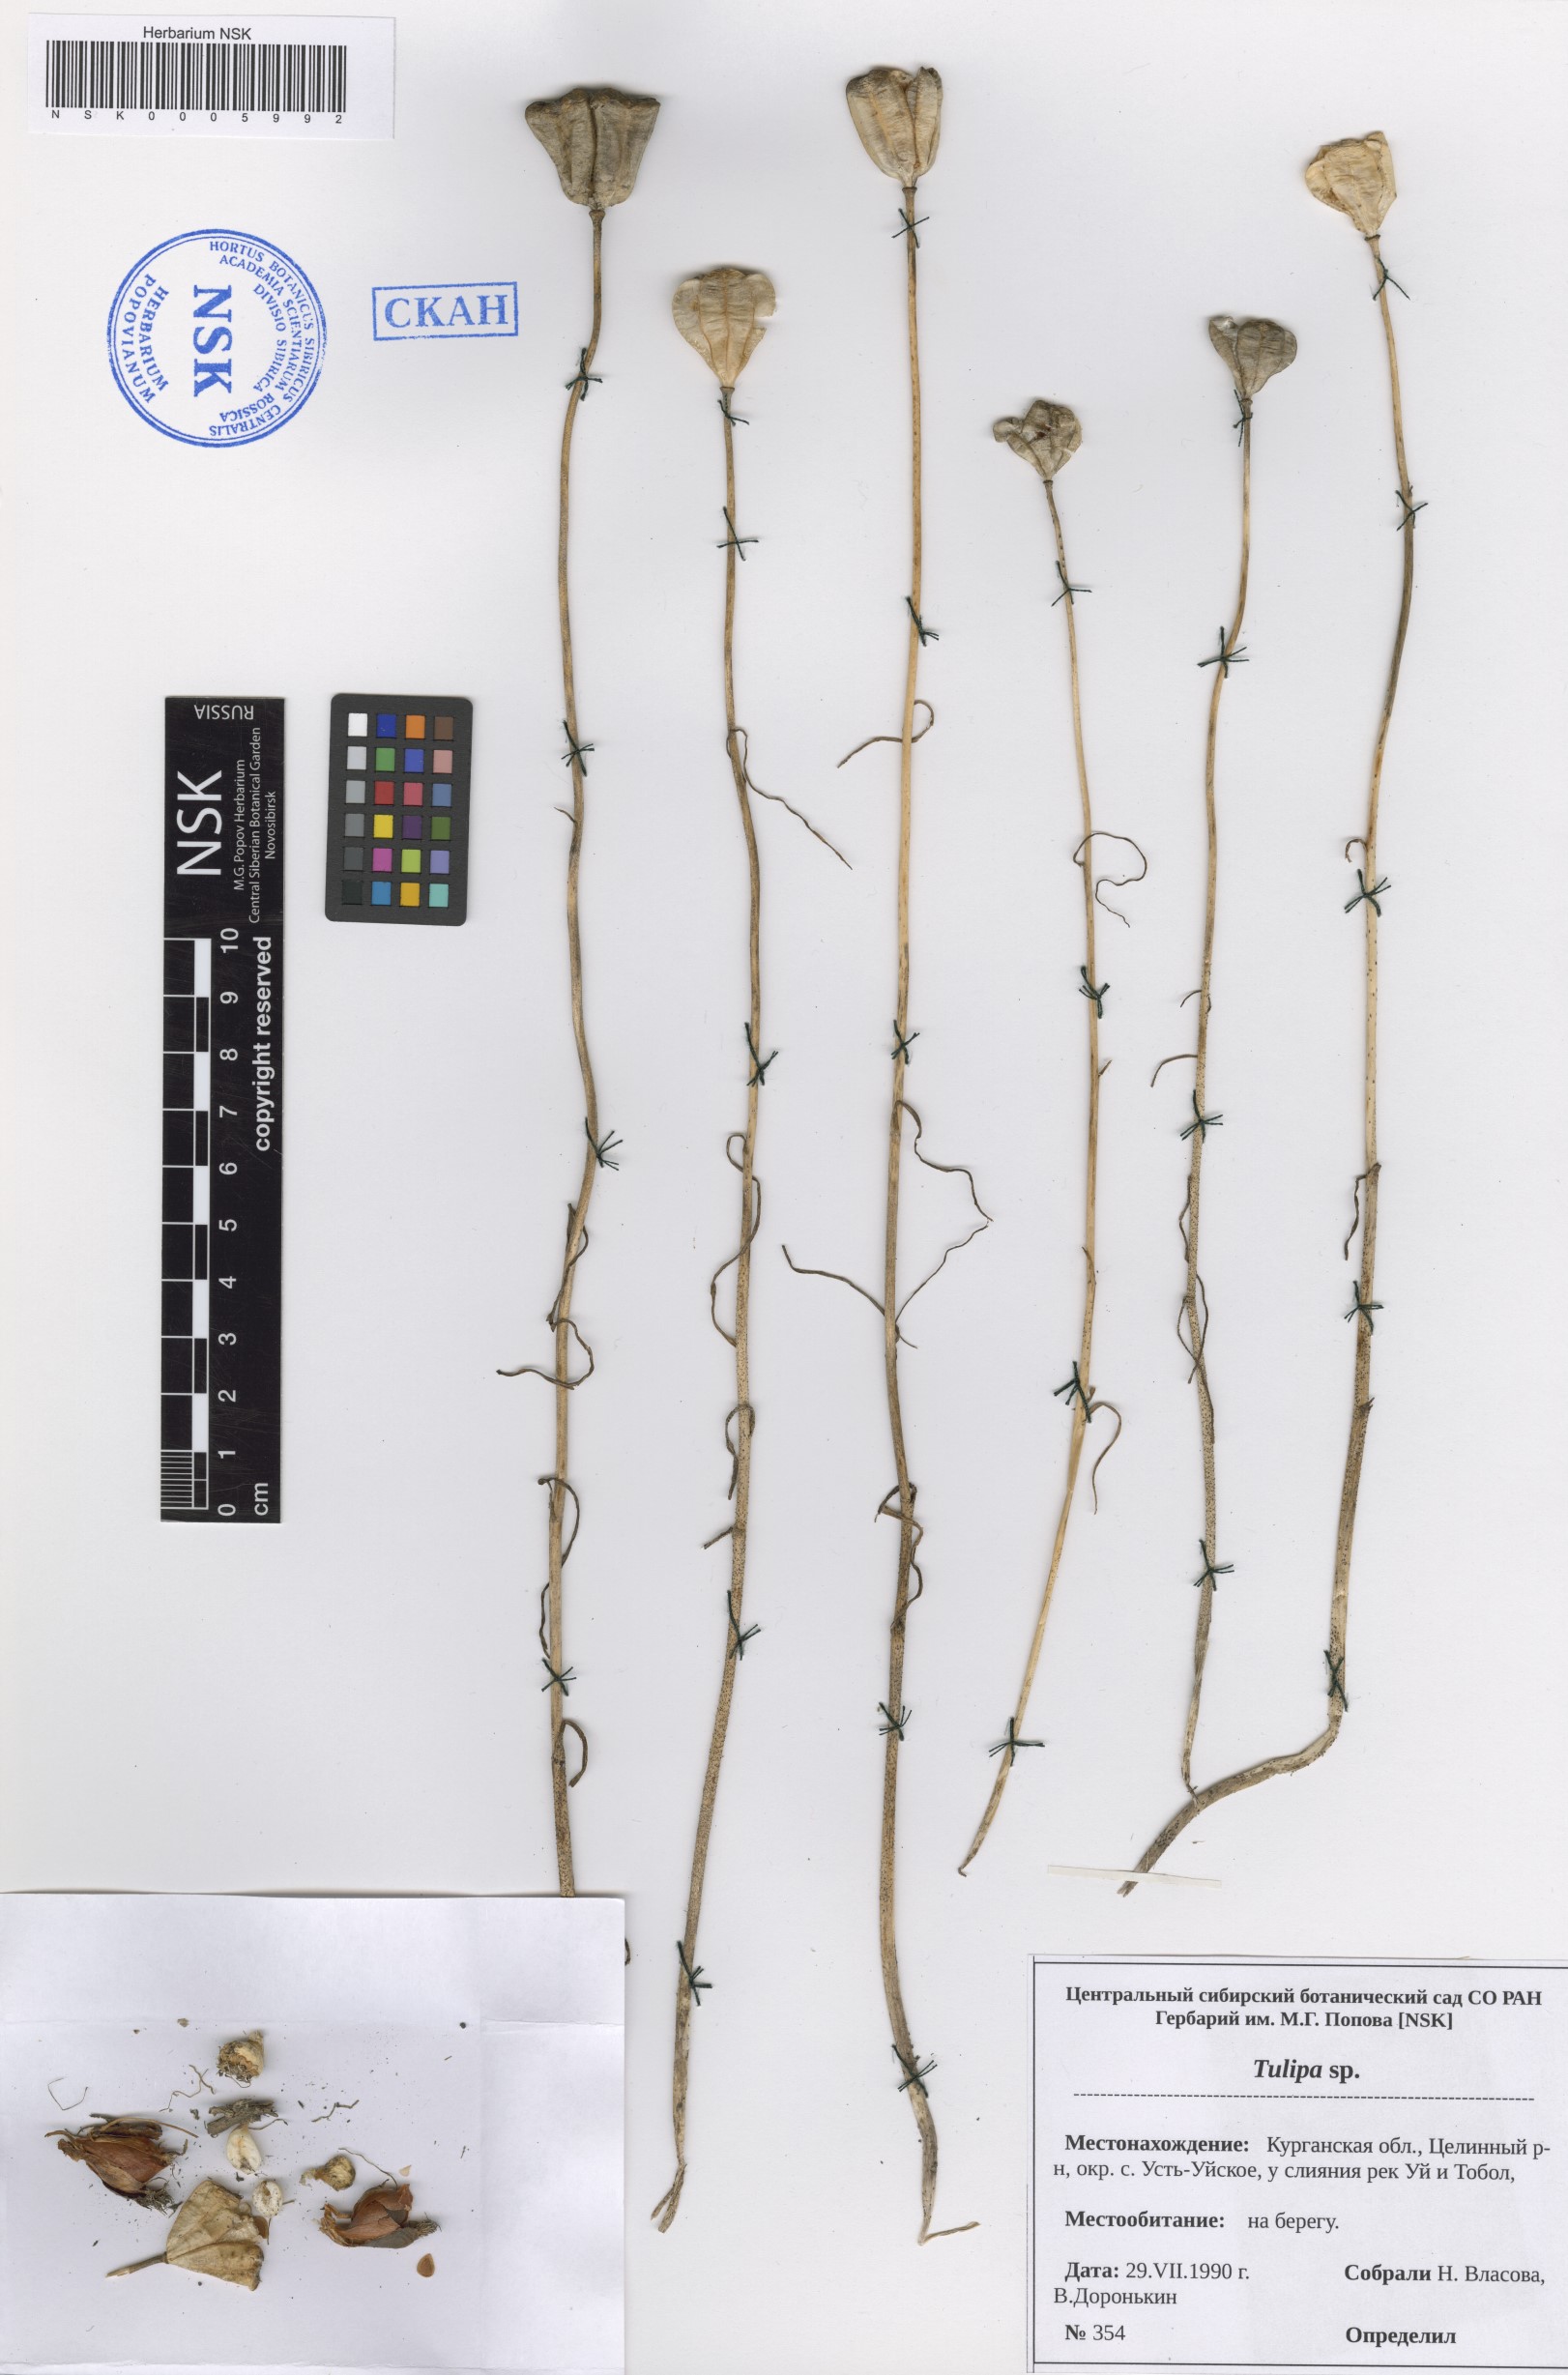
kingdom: Plantae
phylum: Tracheophyta
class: Liliopsida
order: Liliales
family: Liliaceae
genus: Tulipa
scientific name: Tulipa
